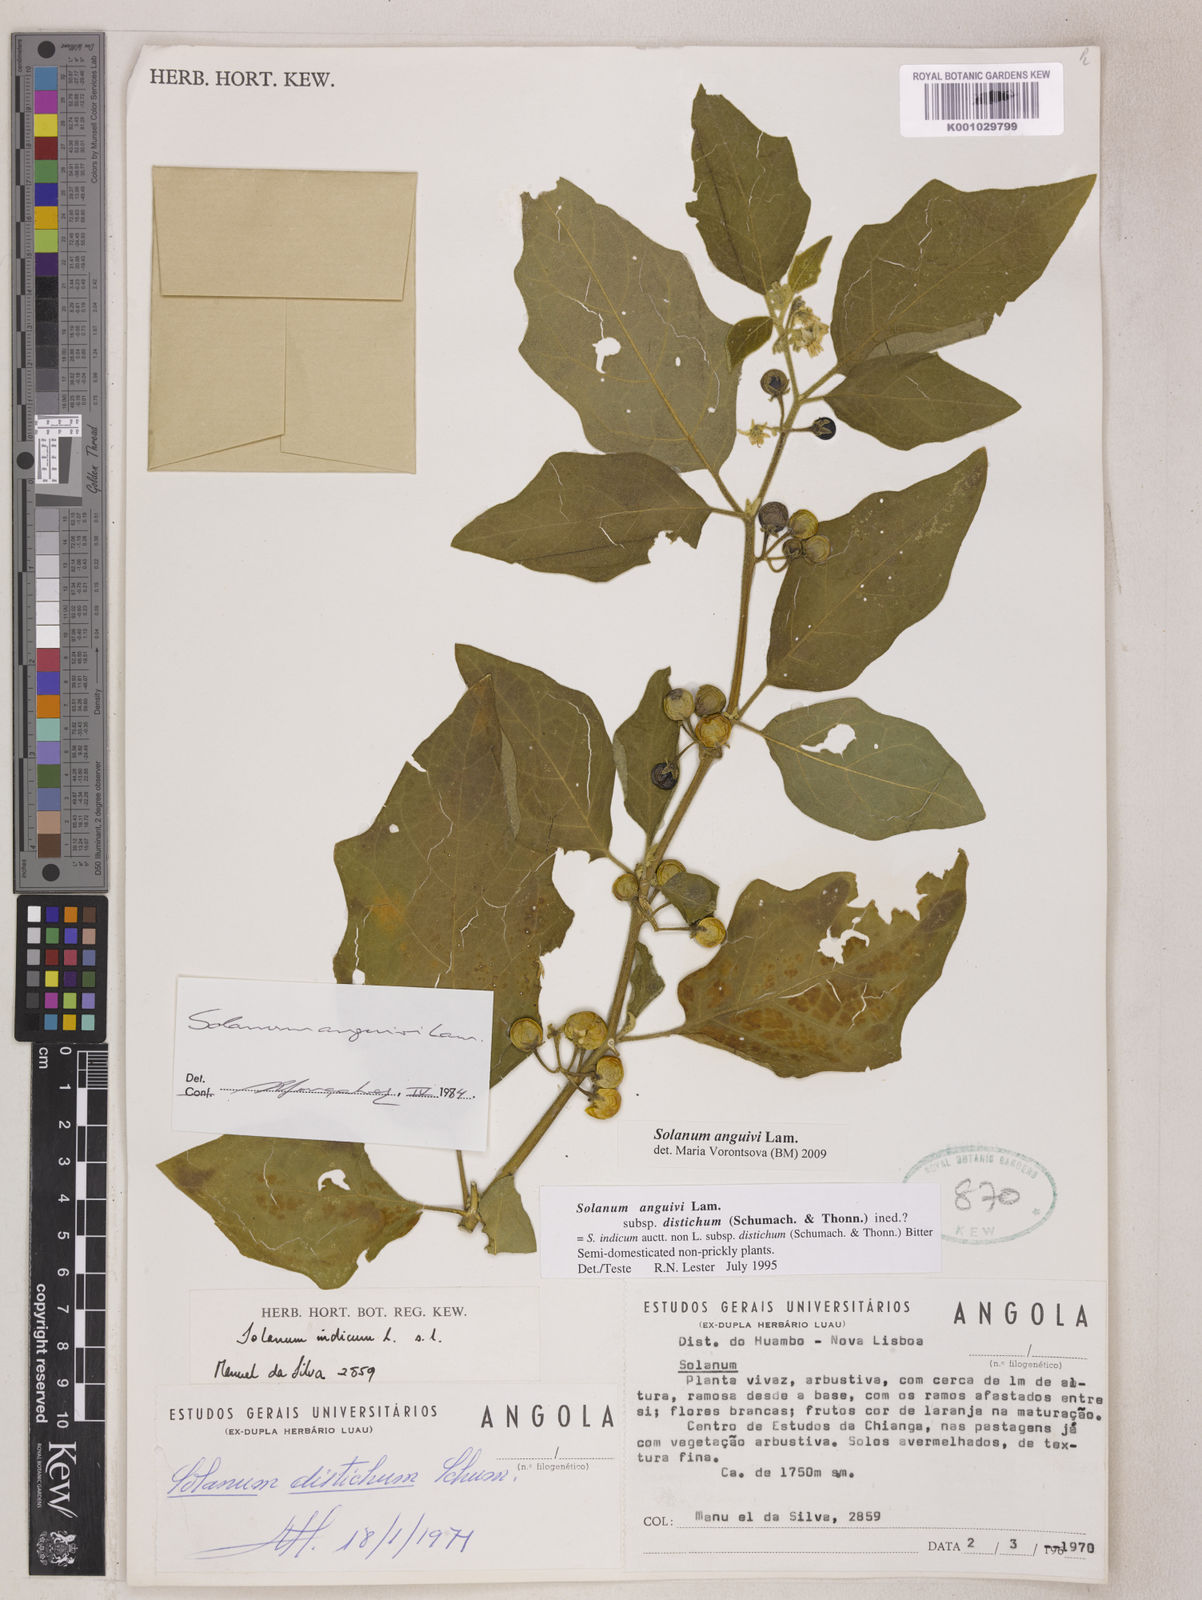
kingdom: Plantae
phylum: Tracheophyta
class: Magnoliopsida
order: Solanales
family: Solanaceae
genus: Solanum
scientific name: Solanum anguivi
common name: Forest bitterberry
